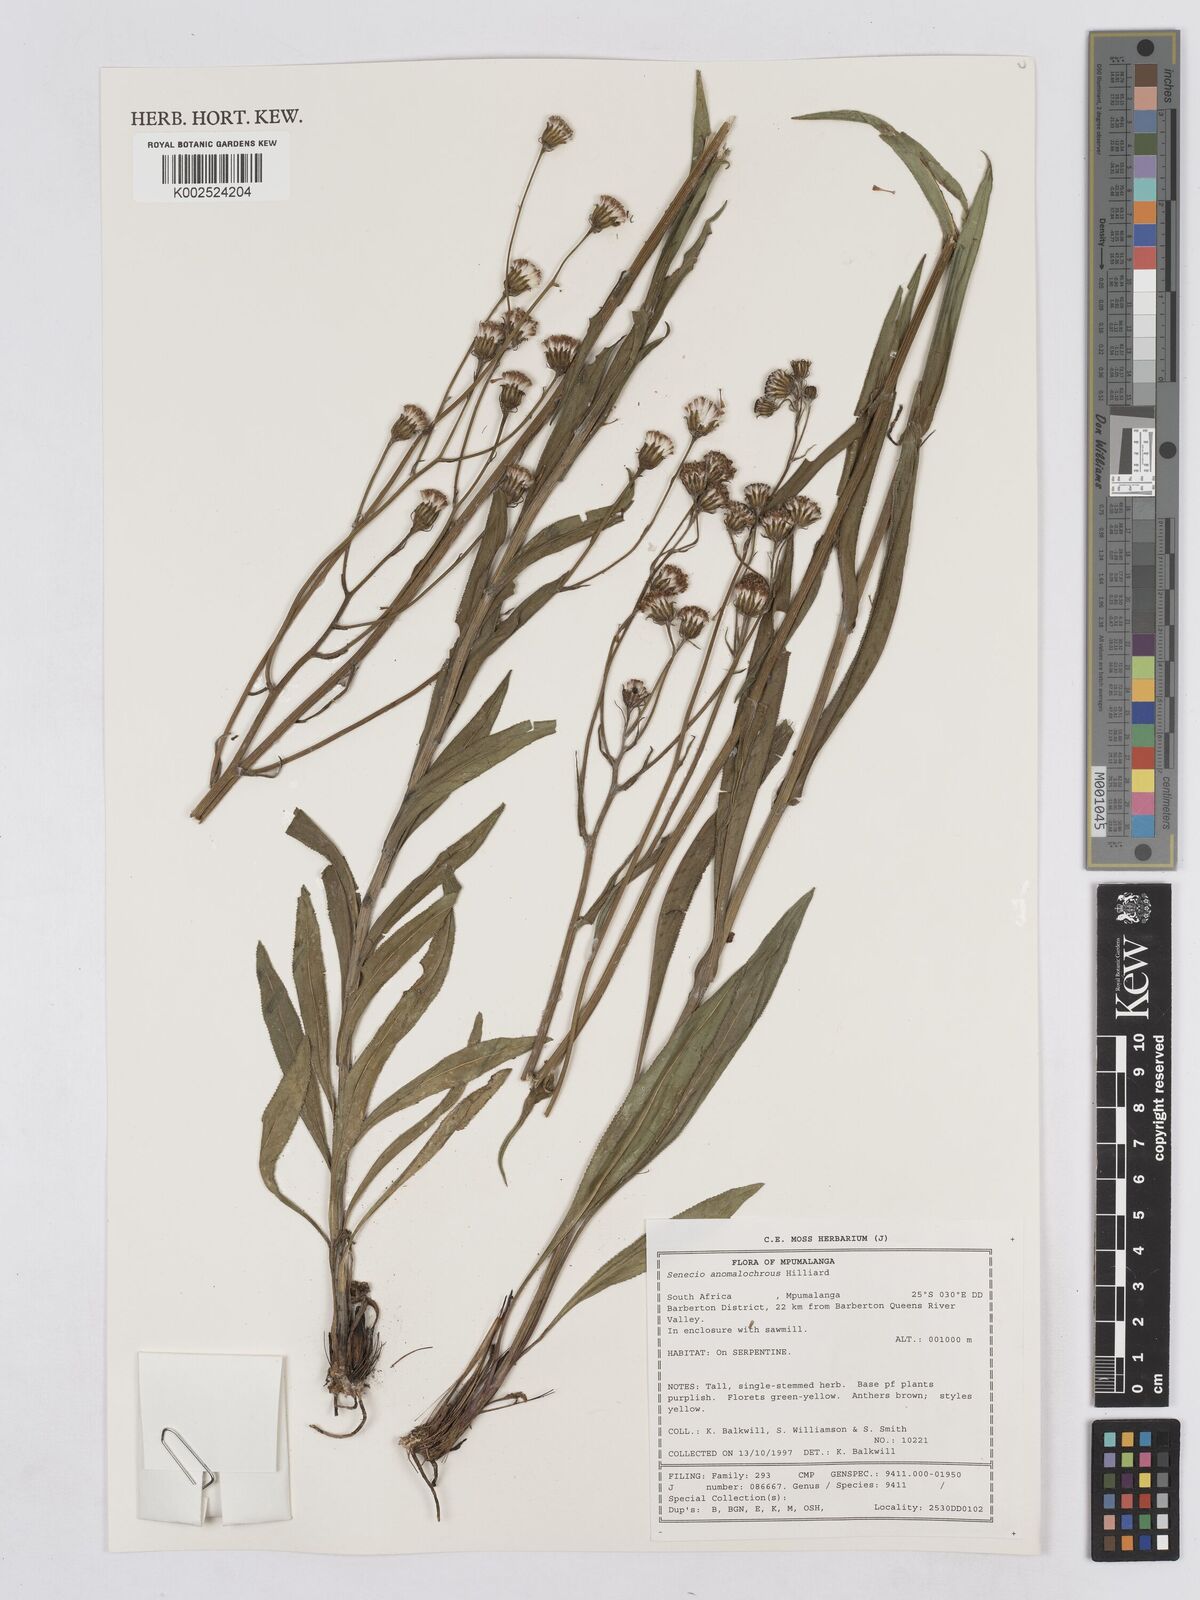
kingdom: Plantae
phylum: Tracheophyta
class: Magnoliopsida
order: Asterales
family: Asteraceae
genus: Senecio
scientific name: Senecio anomalochrous
